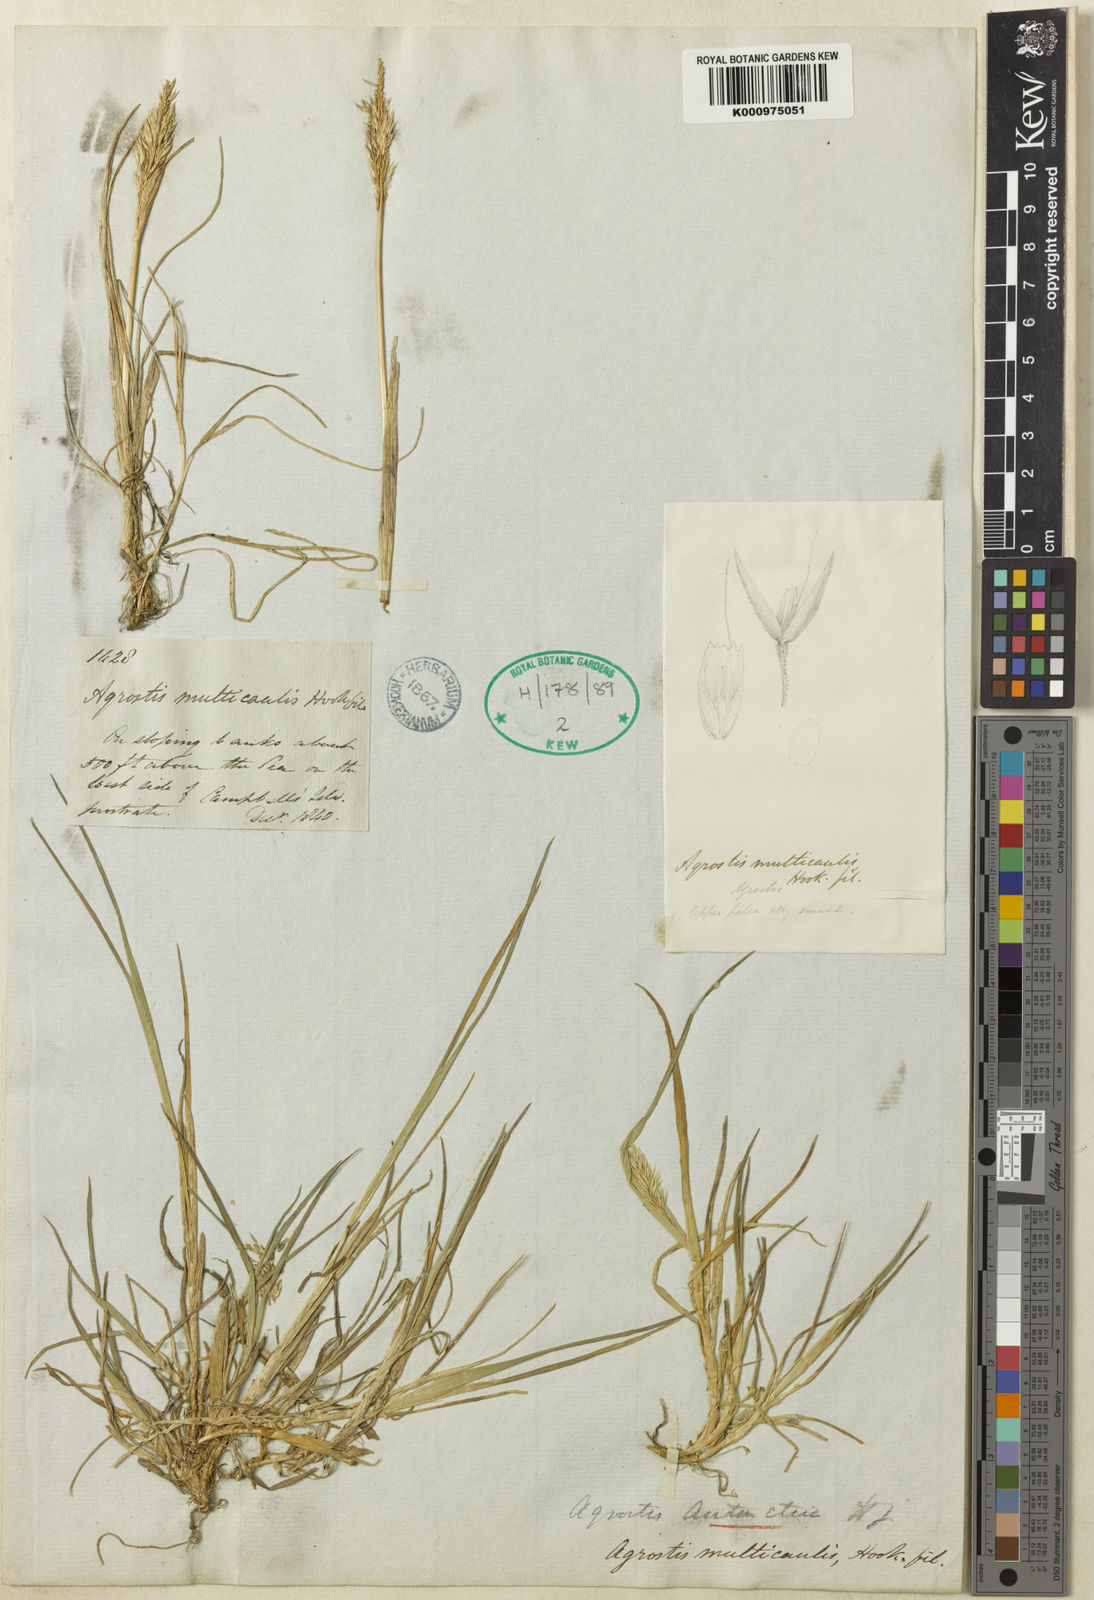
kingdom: Plantae
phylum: Tracheophyta
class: Liliopsida
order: Poales
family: Poaceae
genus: Agrostis
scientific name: Agrostis
